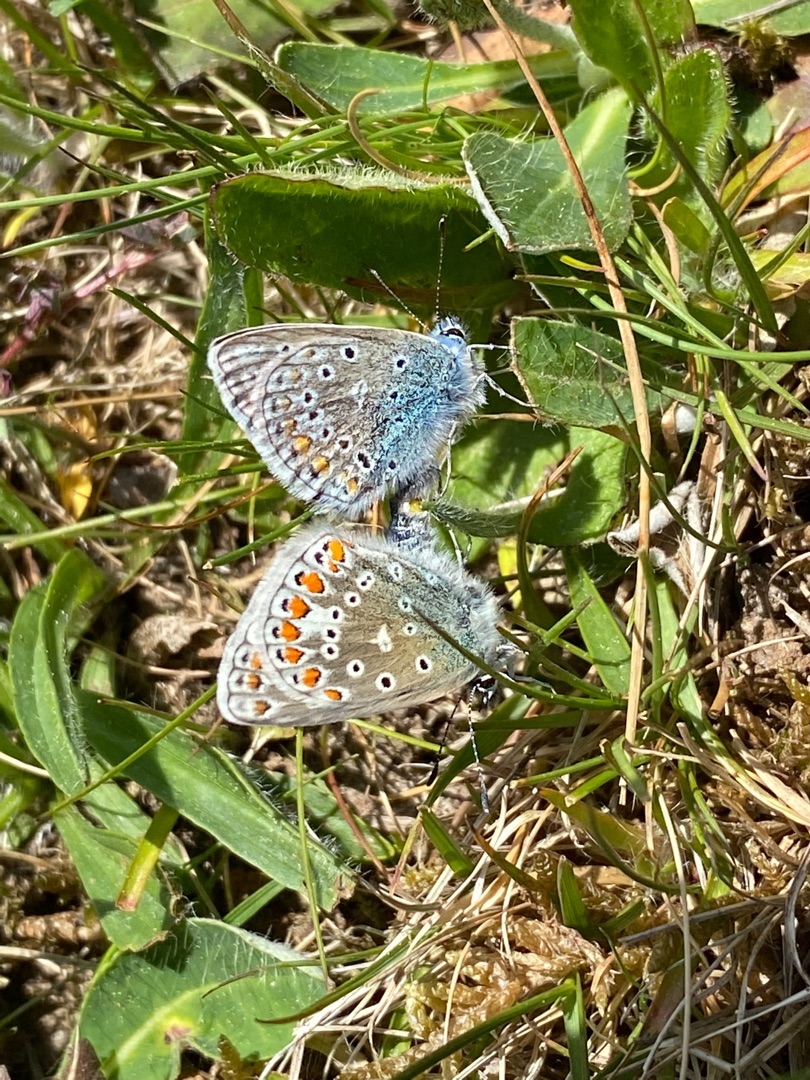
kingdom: Animalia
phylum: Arthropoda
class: Insecta
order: Lepidoptera
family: Lycaenidae
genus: Polyommatus
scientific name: Polyommatus icarus
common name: Almindelig blåfugl
